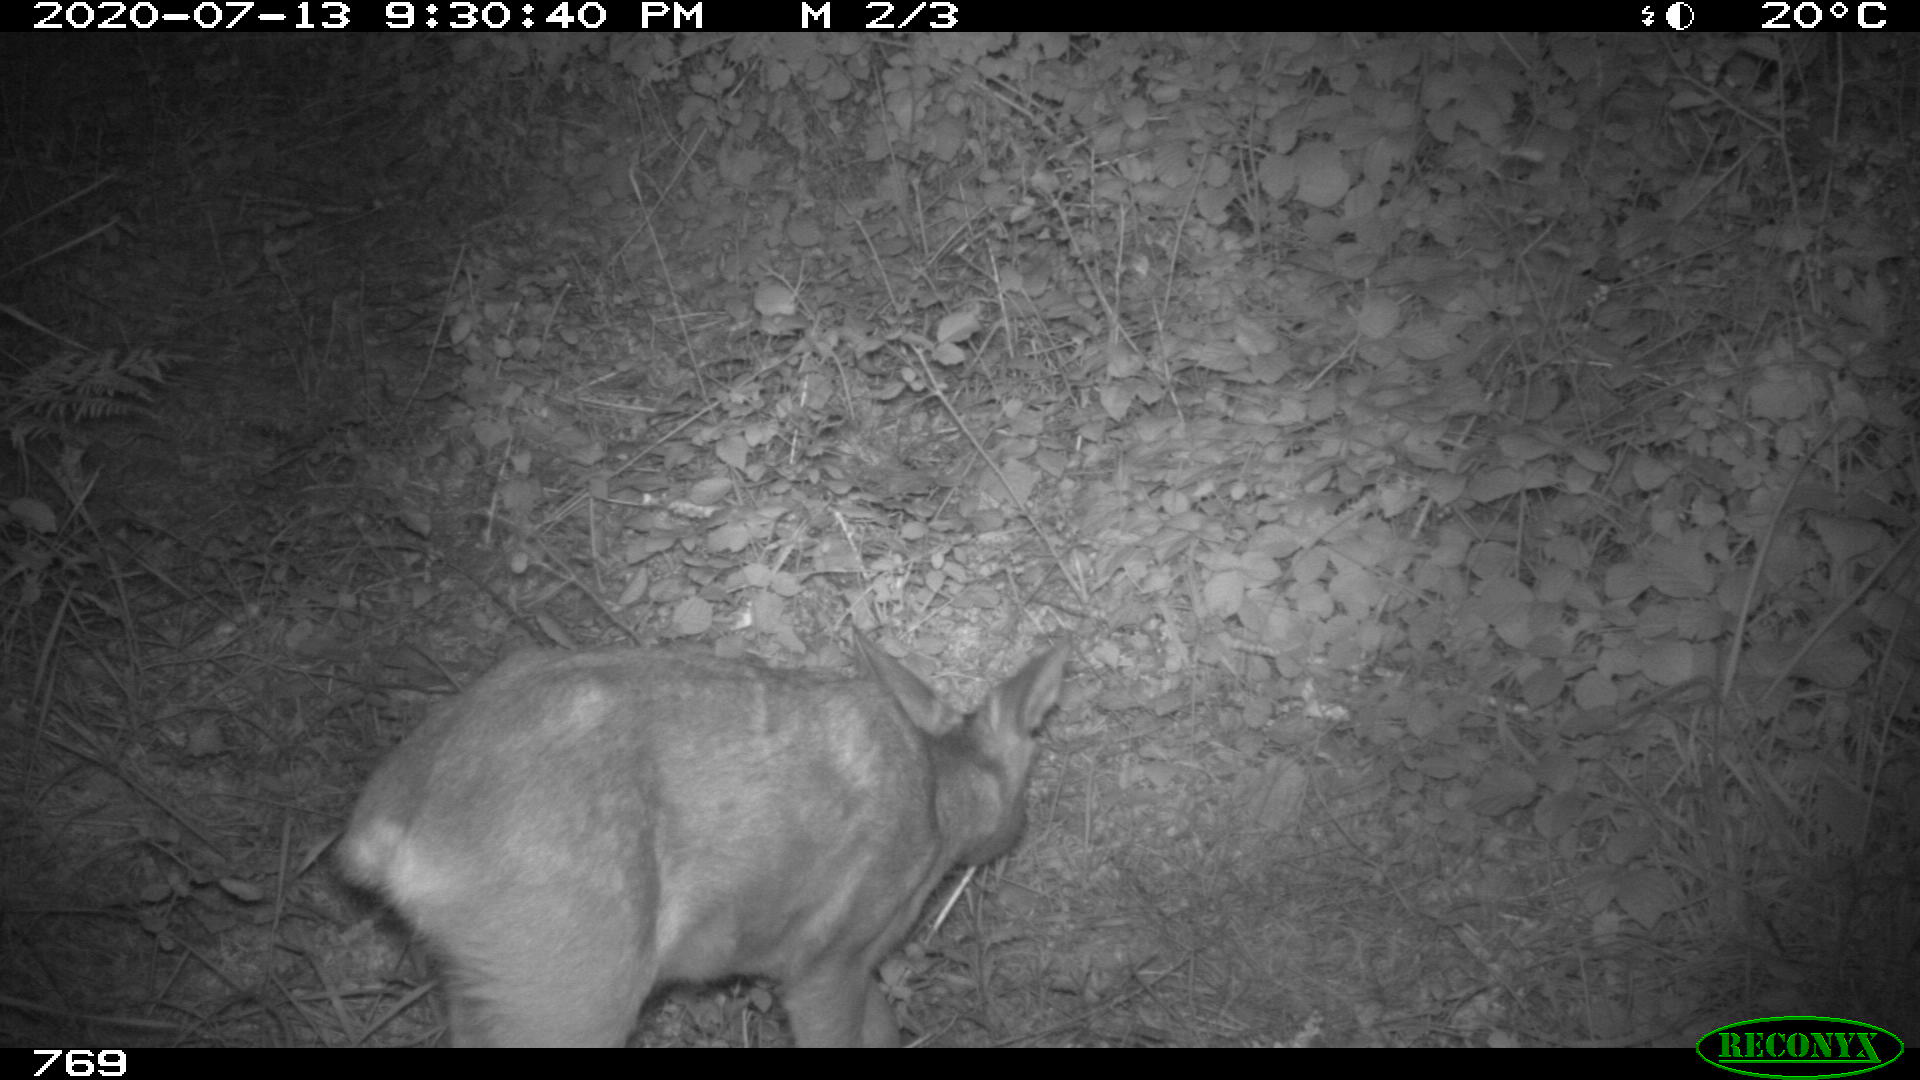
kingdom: Animalia
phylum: Chordata
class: Mammalia
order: Artiodactyla
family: Cervidae
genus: Capreolus
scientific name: Capreolus capreolus
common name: Western roe deer
